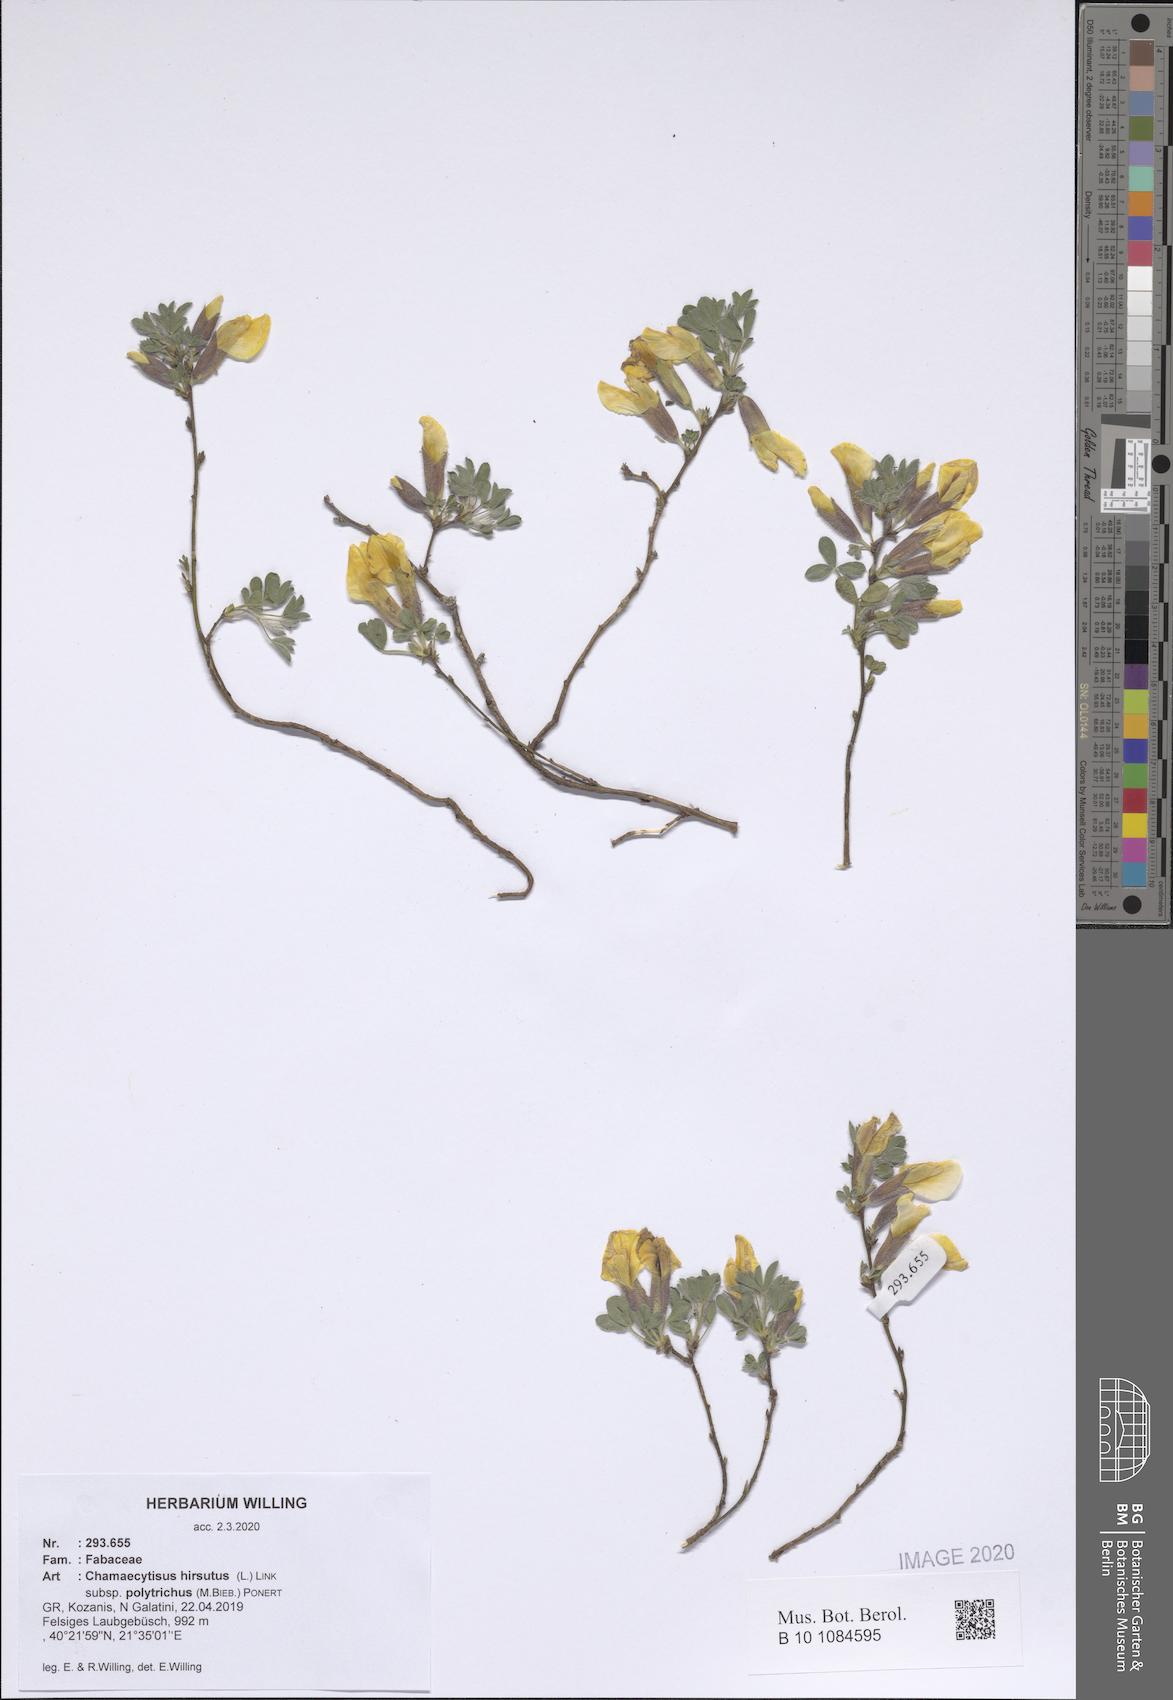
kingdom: Plantae
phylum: Tracheophyta
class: Magnoliopsida
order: Fabales
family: Fabaceae
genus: Chamaecytisus
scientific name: Chamaecytisus hirsutus
